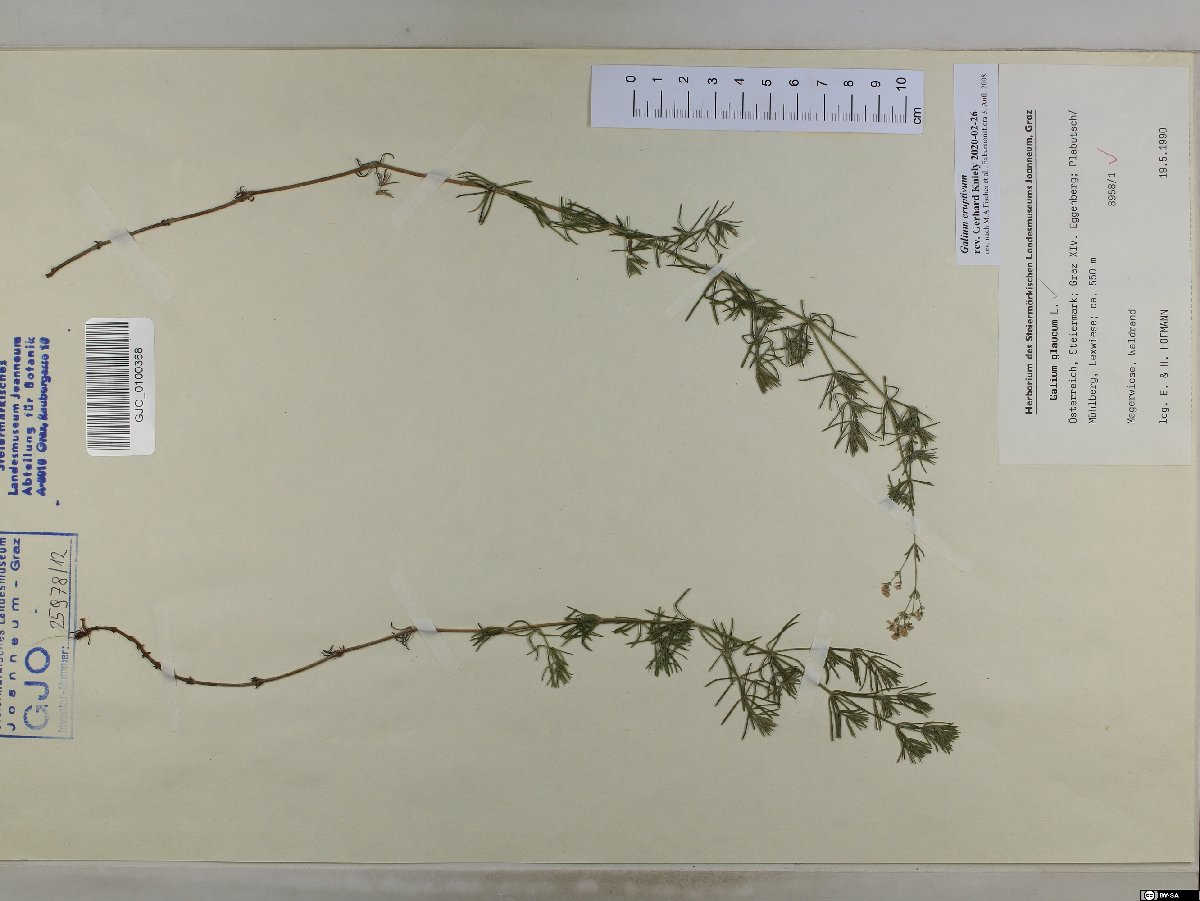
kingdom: Plantae
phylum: Tracheophyta
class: Magnoliopsida
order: Gentianales
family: Rubiaceae
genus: Galium
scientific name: Galium eruptivum
